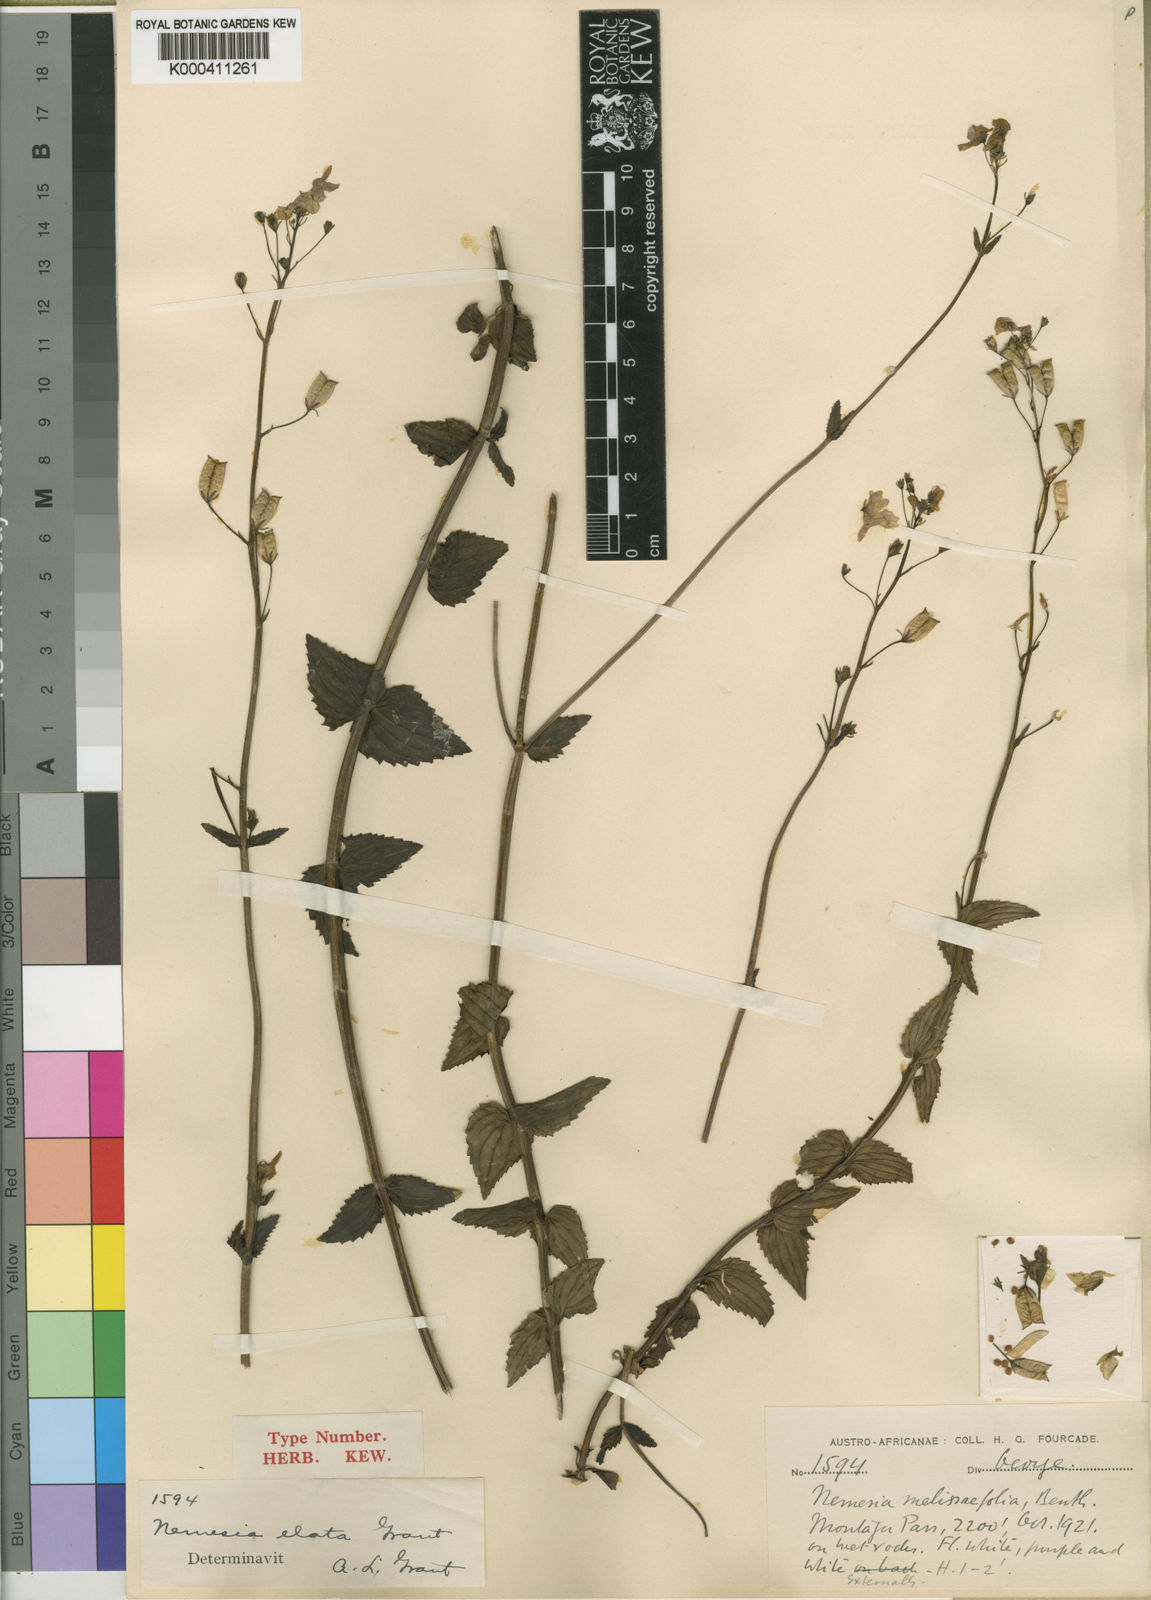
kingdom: Plantae
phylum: Tracheophyta
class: Magnoliopsida
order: Lamiales
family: Scrophulariaceae
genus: Nemesia
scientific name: Nemesia
